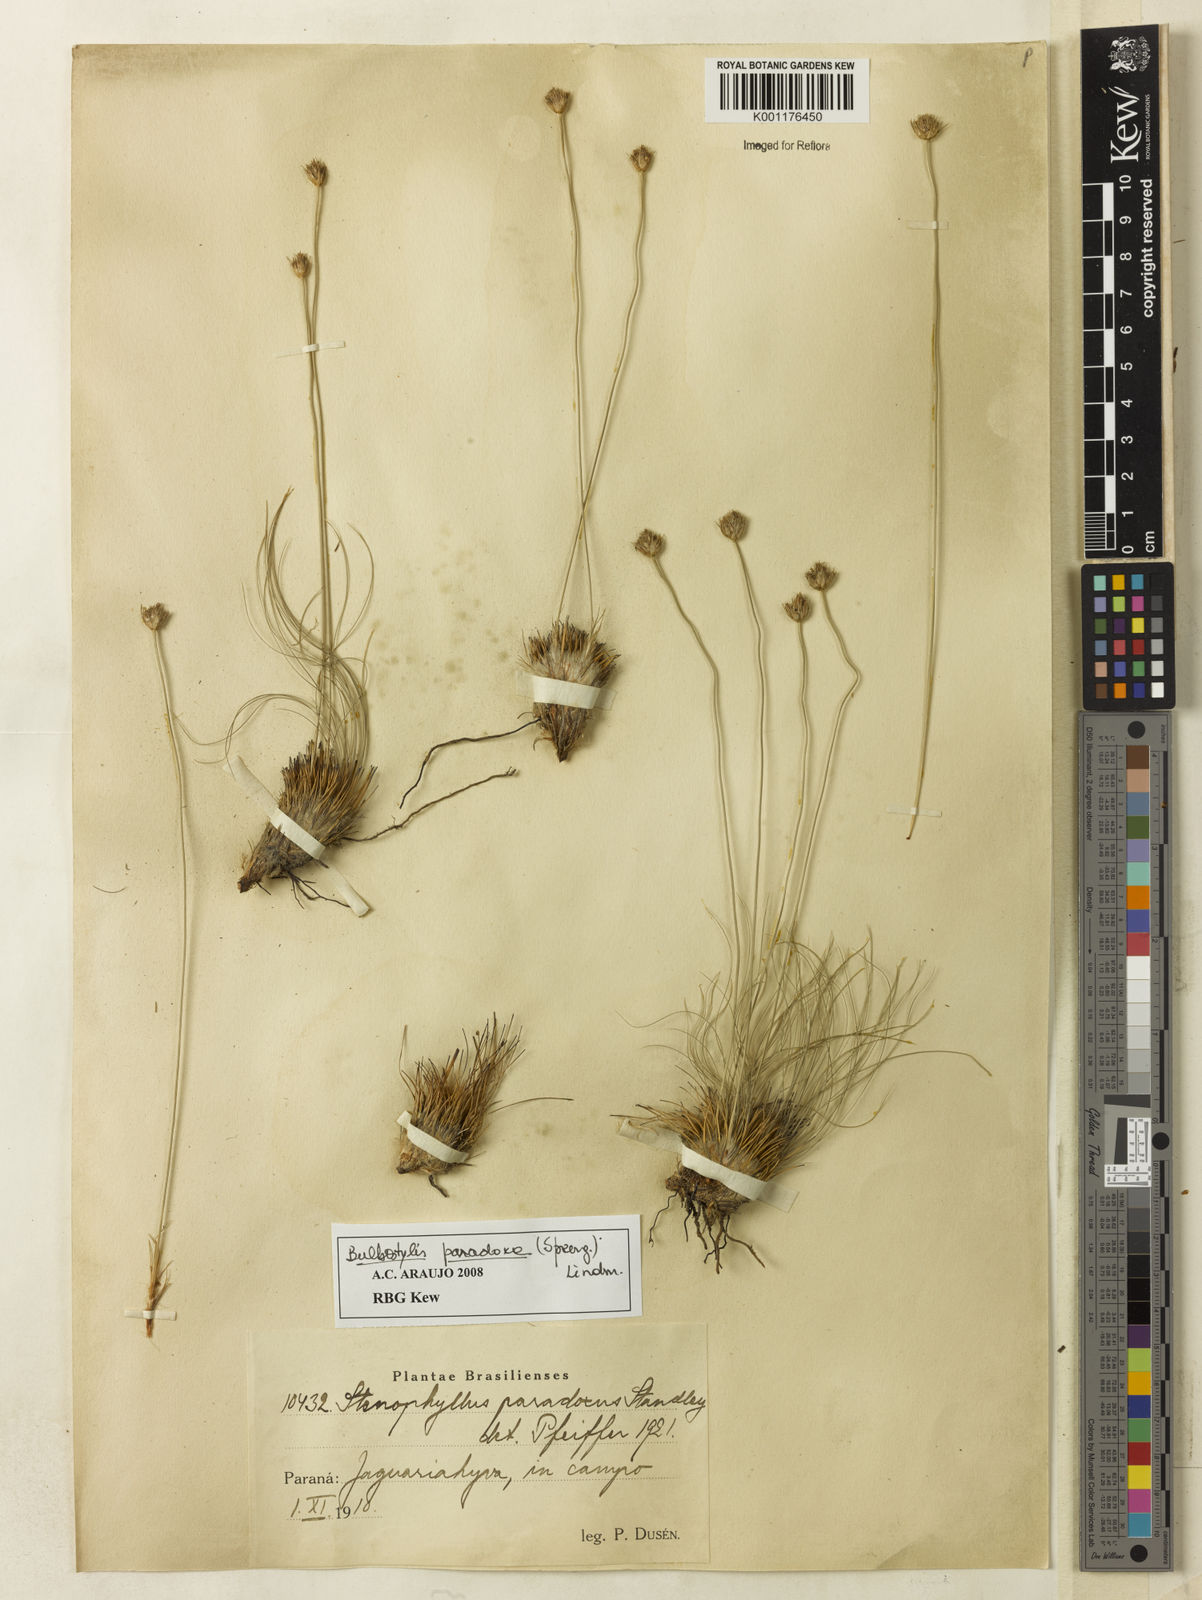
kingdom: Plantae
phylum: Tracheophyta
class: Liliopsida
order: Poales
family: Cyperaceae
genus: Bulbostylis
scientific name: Bulbostylis paradoxa
